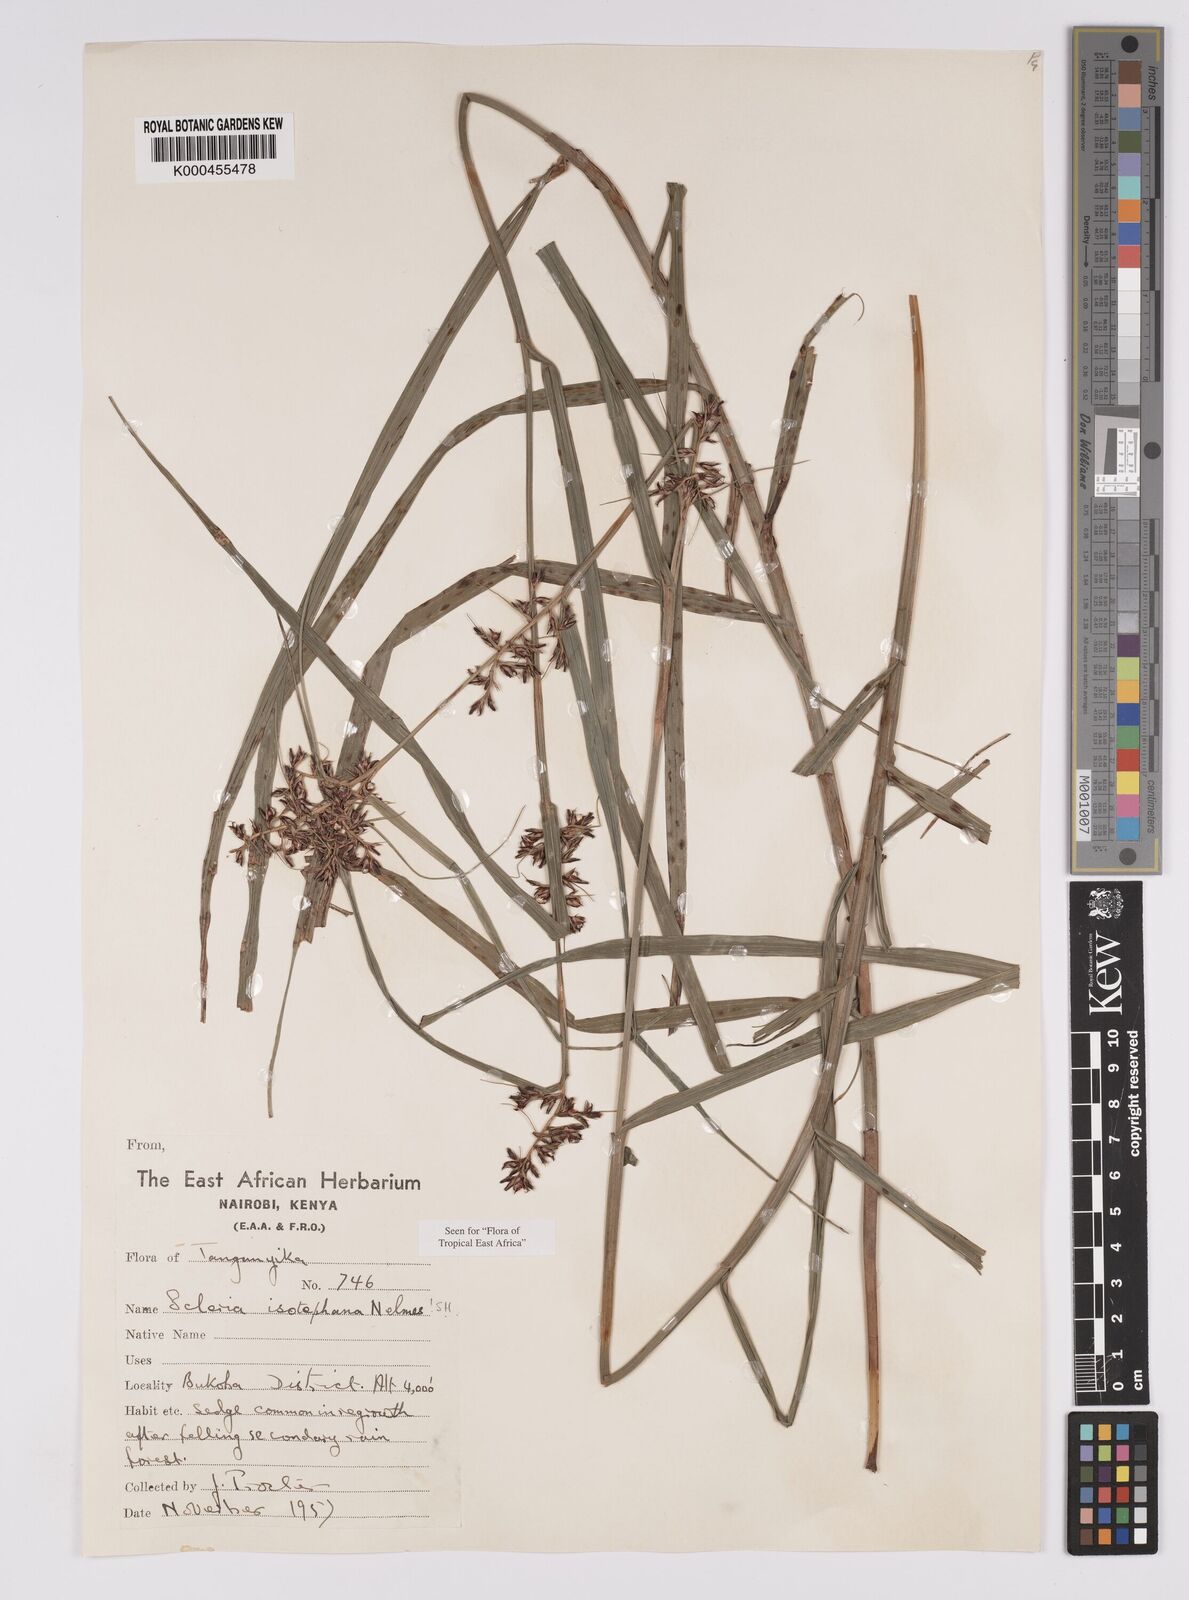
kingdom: Plantae
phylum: Tracheophyta
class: Liliopsida
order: Poales
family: Cyperaceae
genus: Scleria
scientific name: Scleria iostephana
